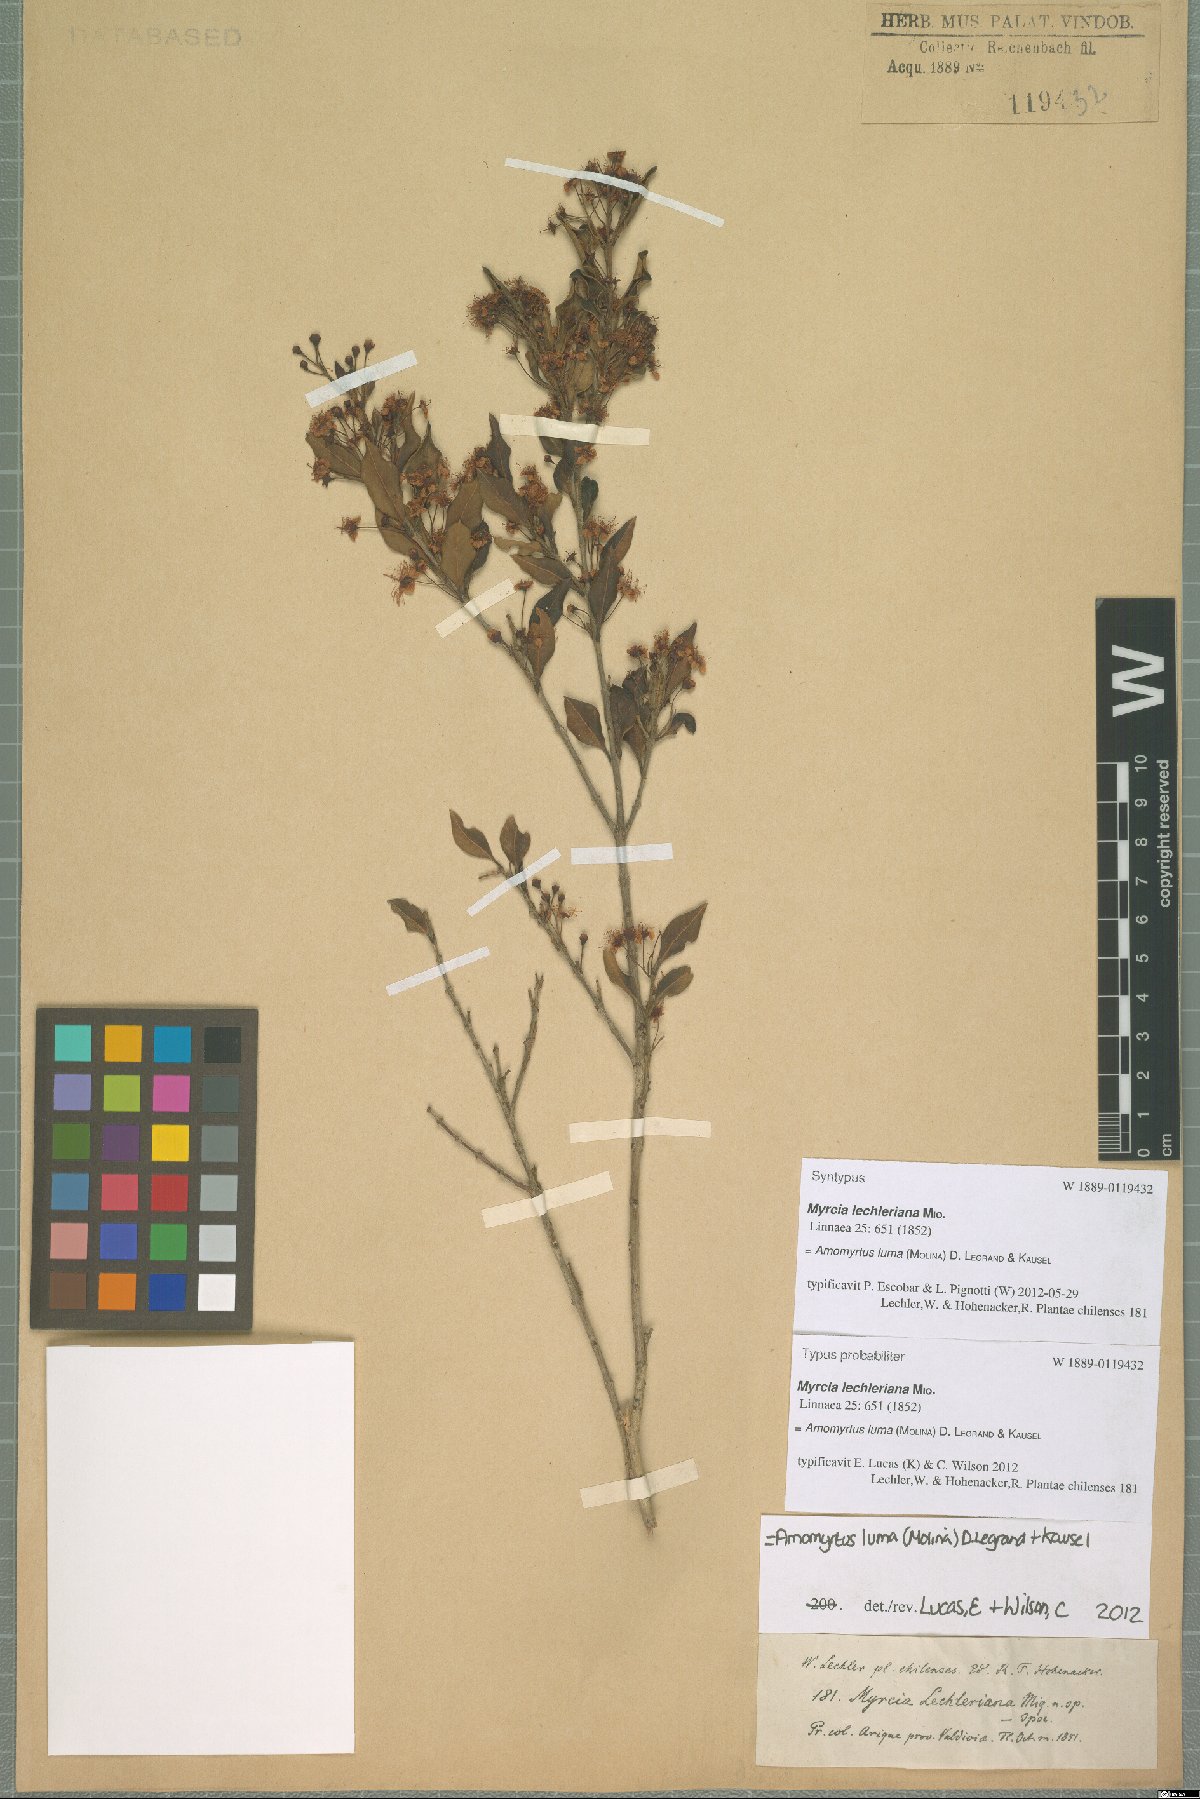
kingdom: Plantae
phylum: Tracheophyta
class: Magnoliopsida
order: Myrtales
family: Myrtaceae
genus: Amomyrtus
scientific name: Amomyrtus luma
